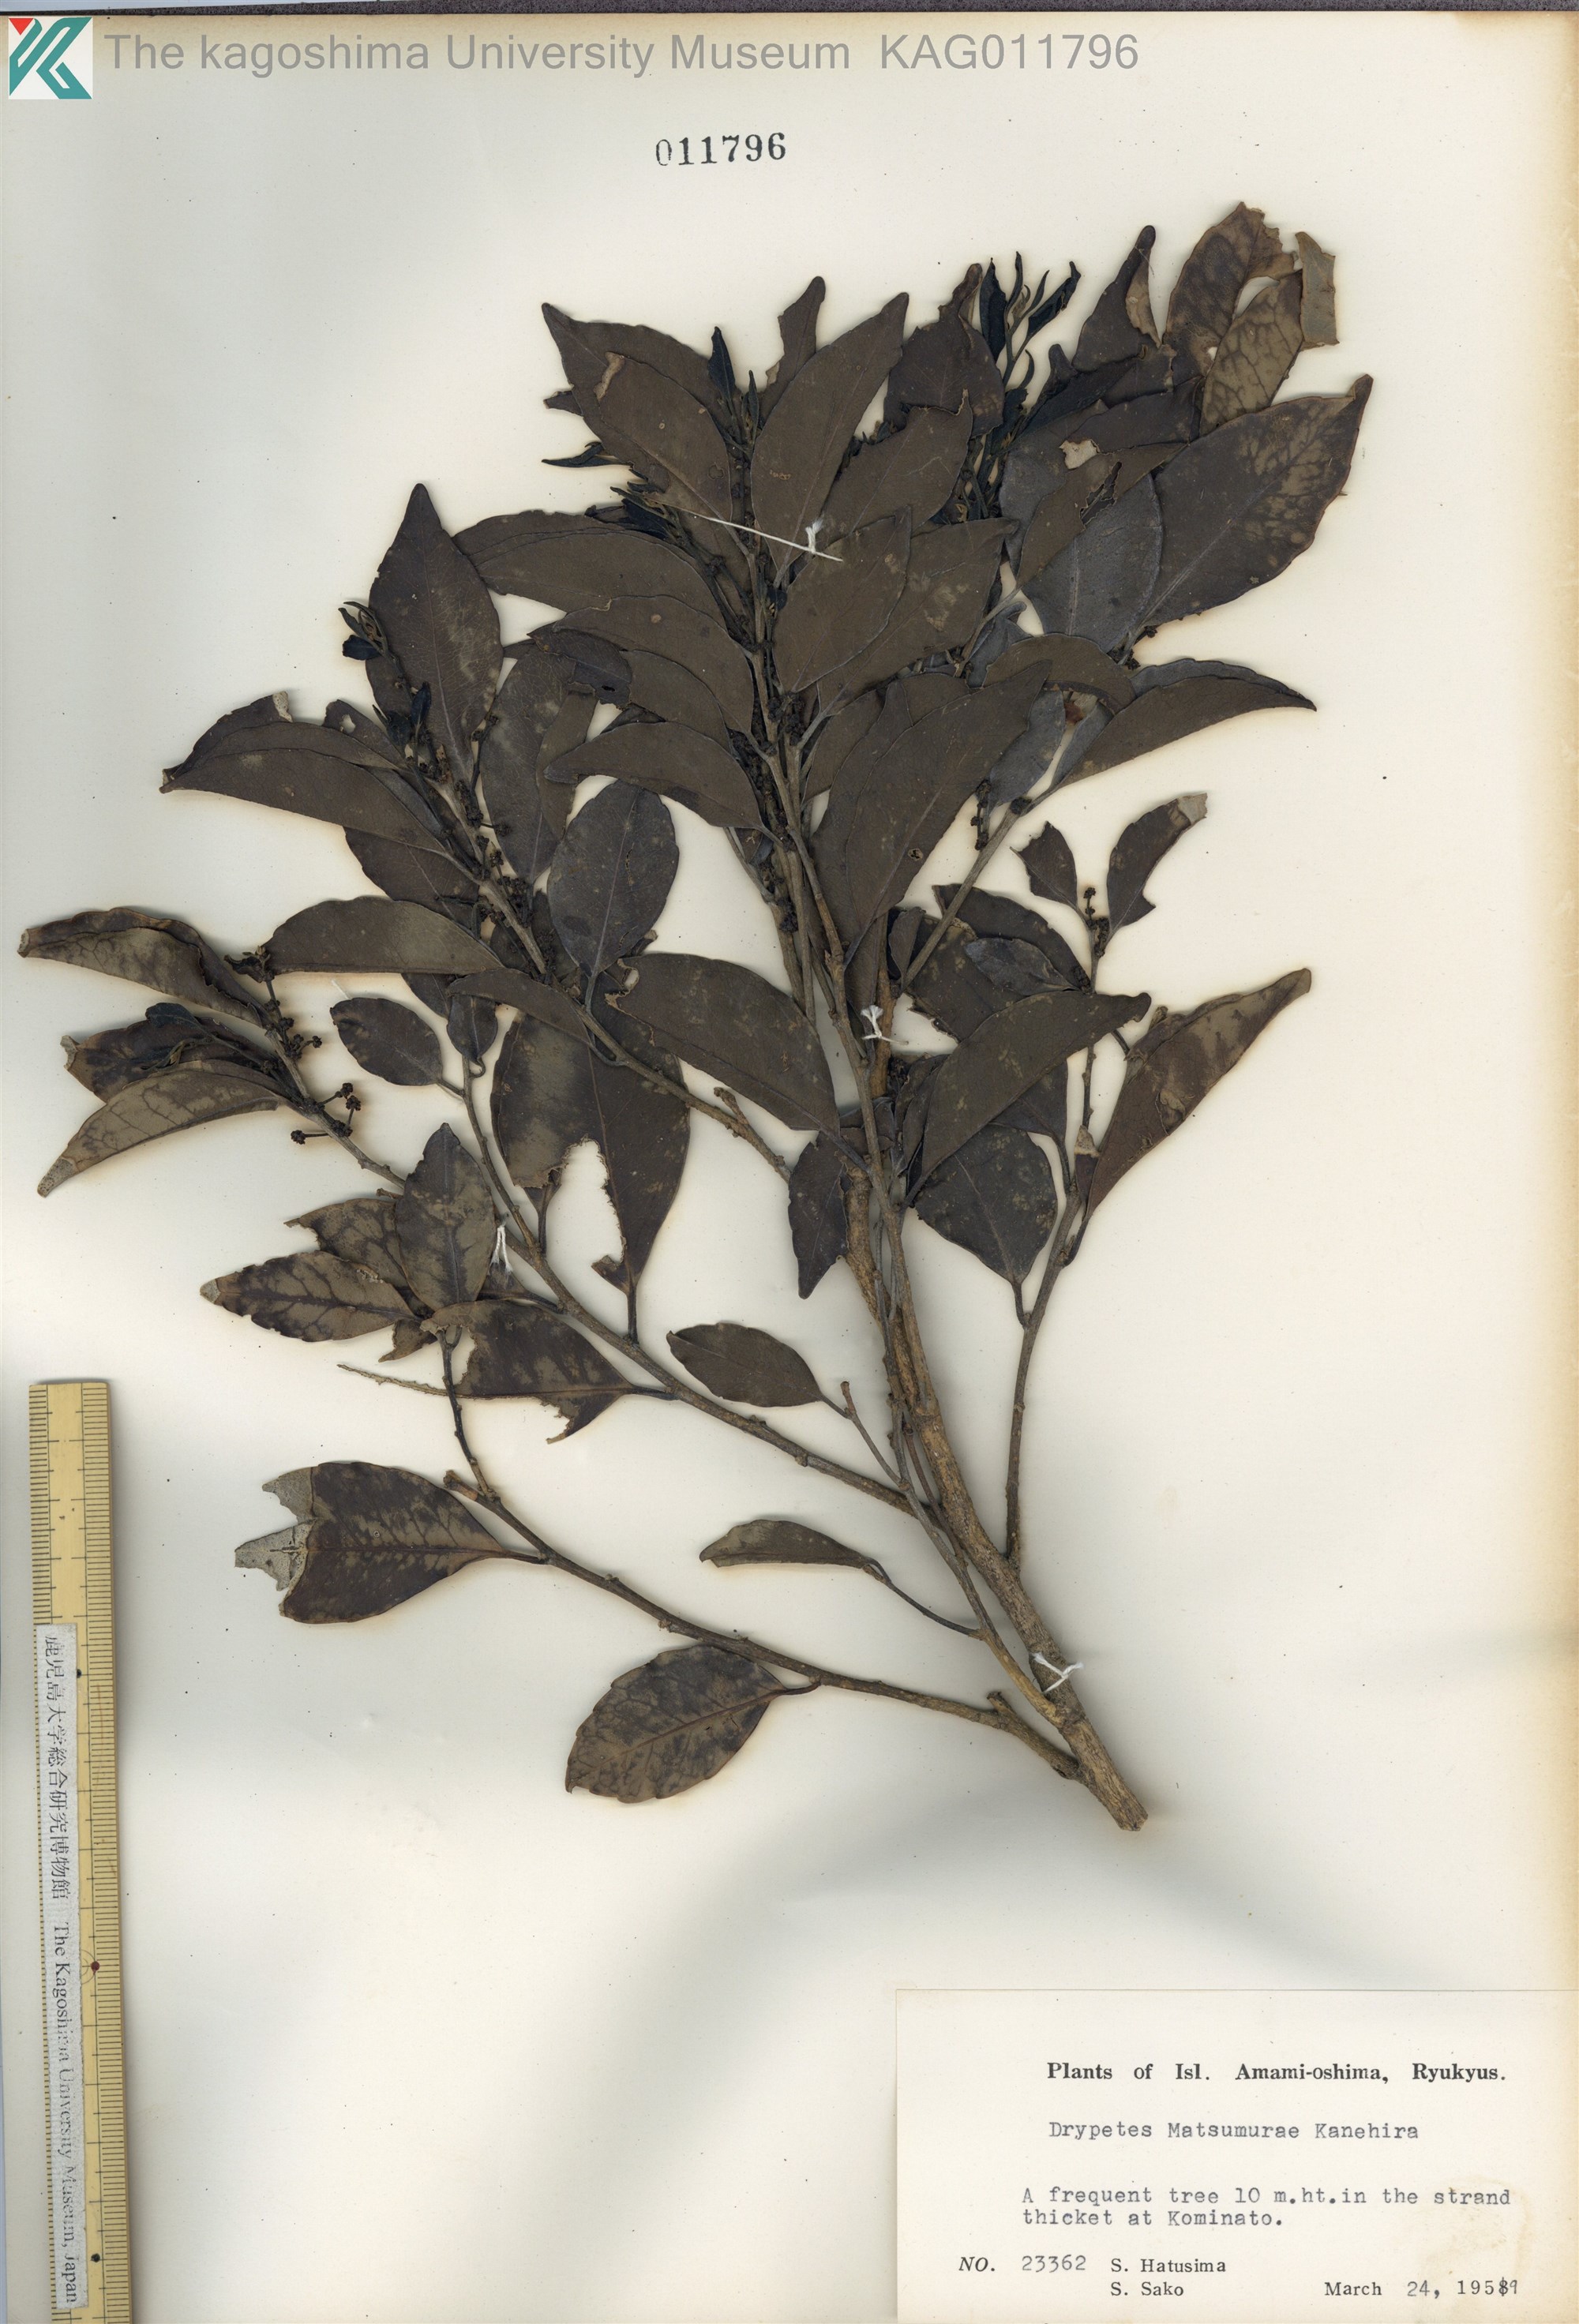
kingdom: Plantae
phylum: Tracheophyta
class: Magnoliopsida
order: Malpighiales
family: Putranjivaceae
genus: Putranjiva
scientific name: Putranjiva matsumurae
